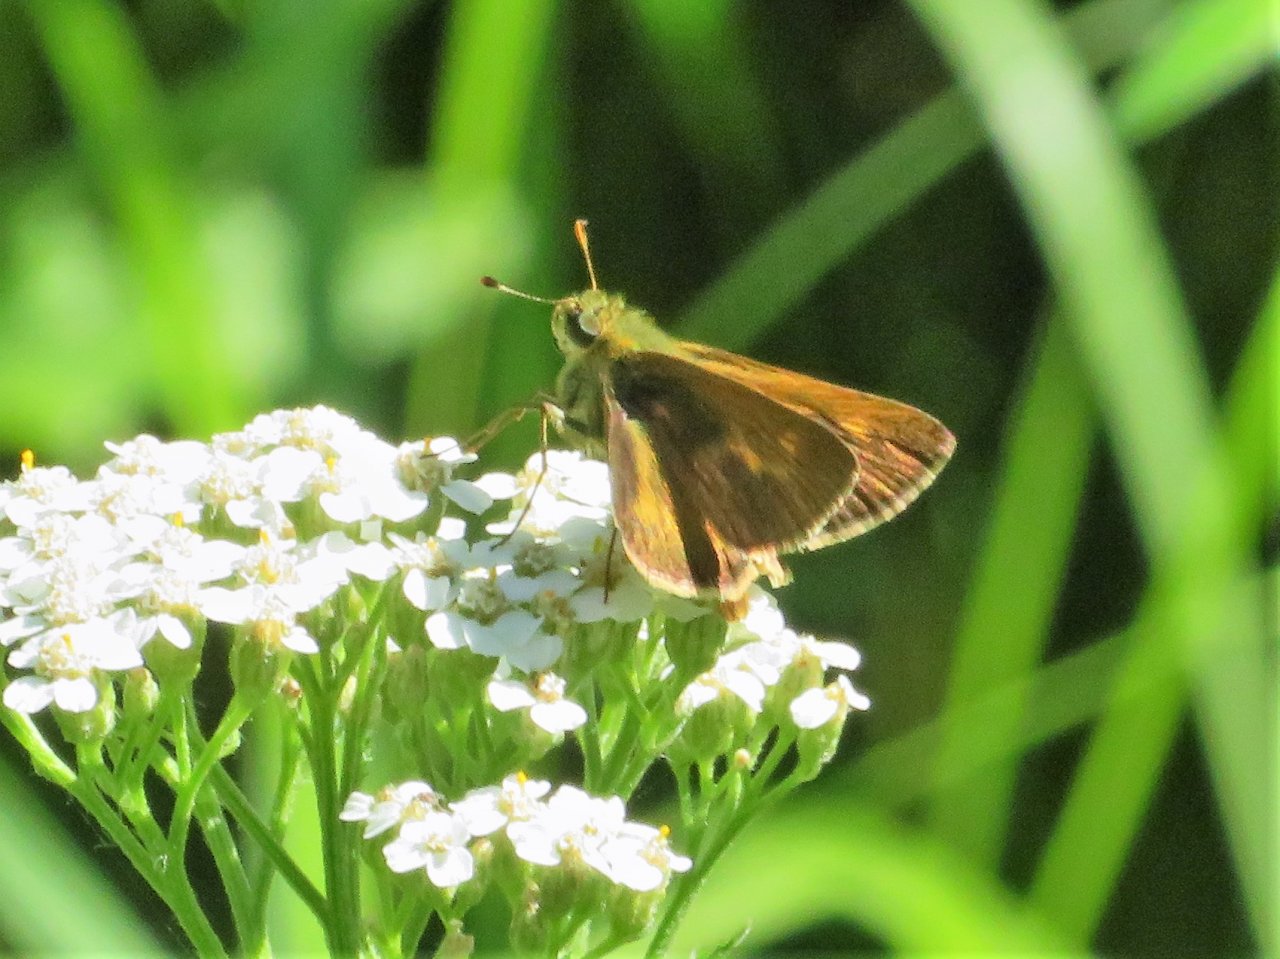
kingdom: Animalia
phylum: Arthropoda
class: Insecta
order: Lepidoptera
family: Hesperiidae
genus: Polites
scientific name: Polites themistocles
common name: Tawny-edged Skipper
